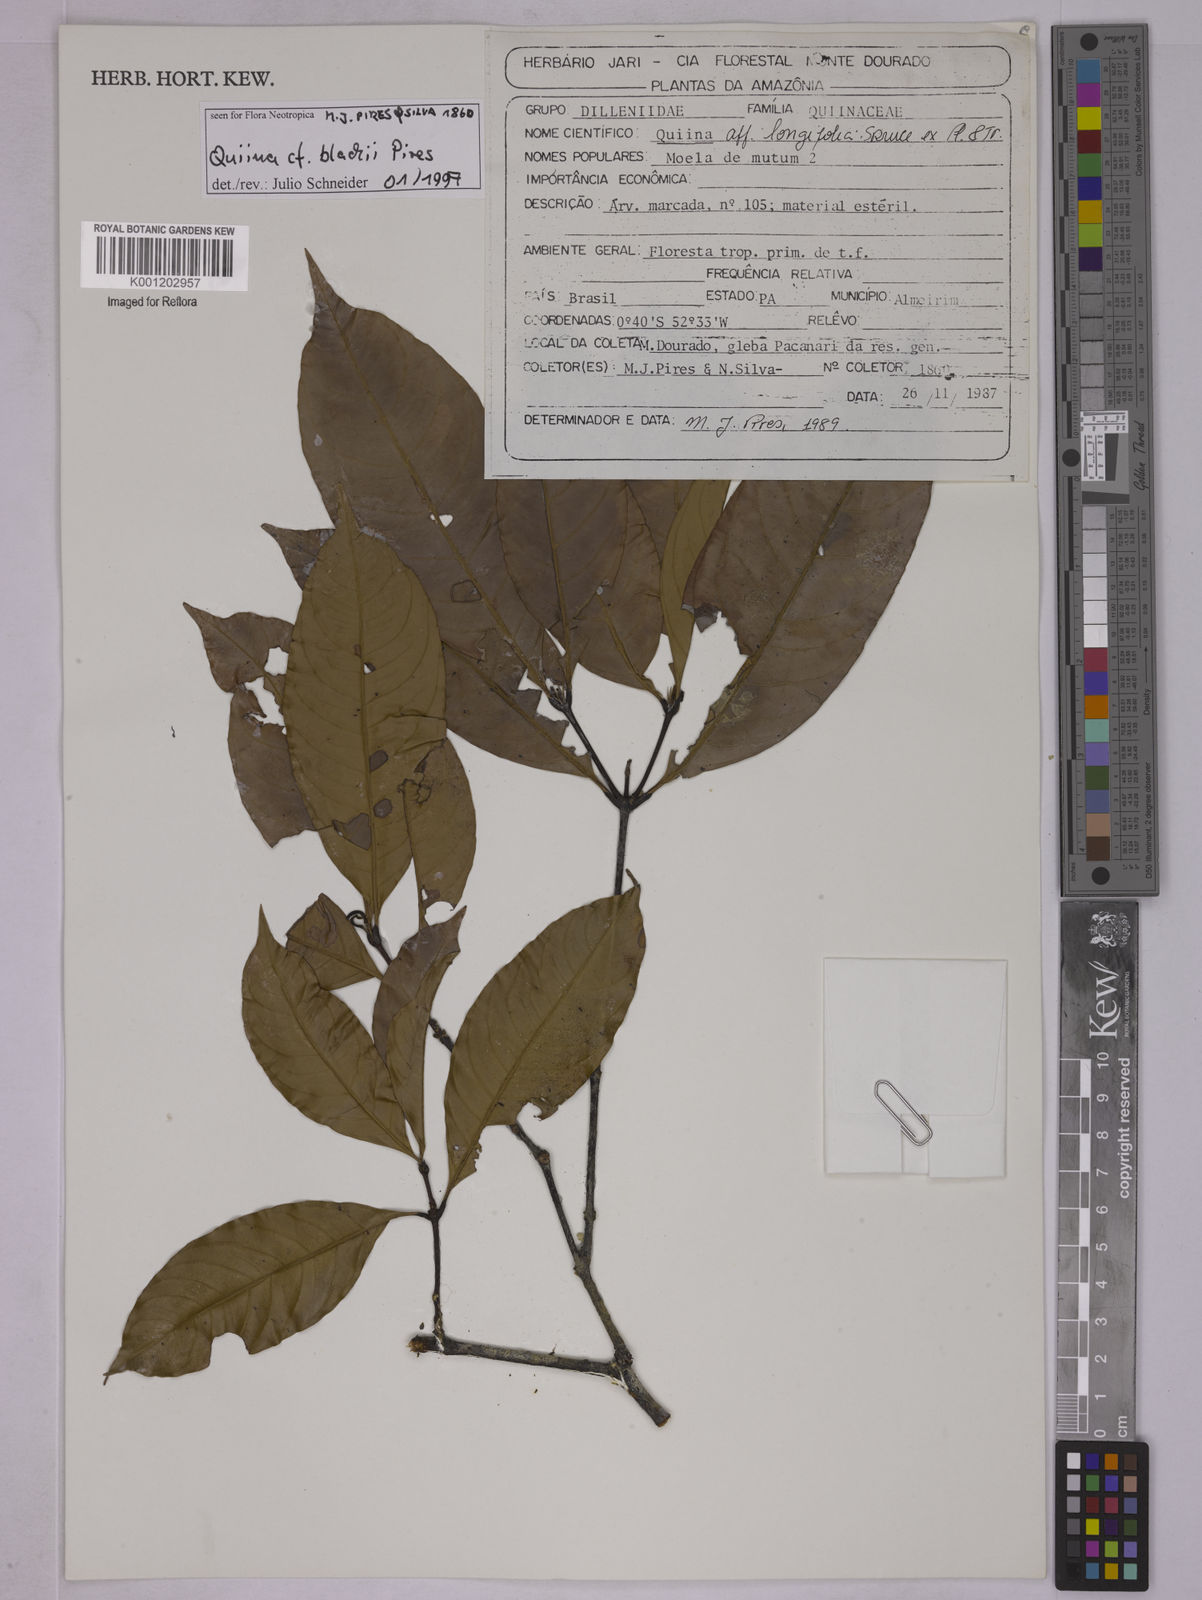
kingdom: Plantae
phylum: Tracheophyta
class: Magnoliopsida
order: Malpighiales
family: Quiinaceae
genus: Quiina
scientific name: Quiina blackii
